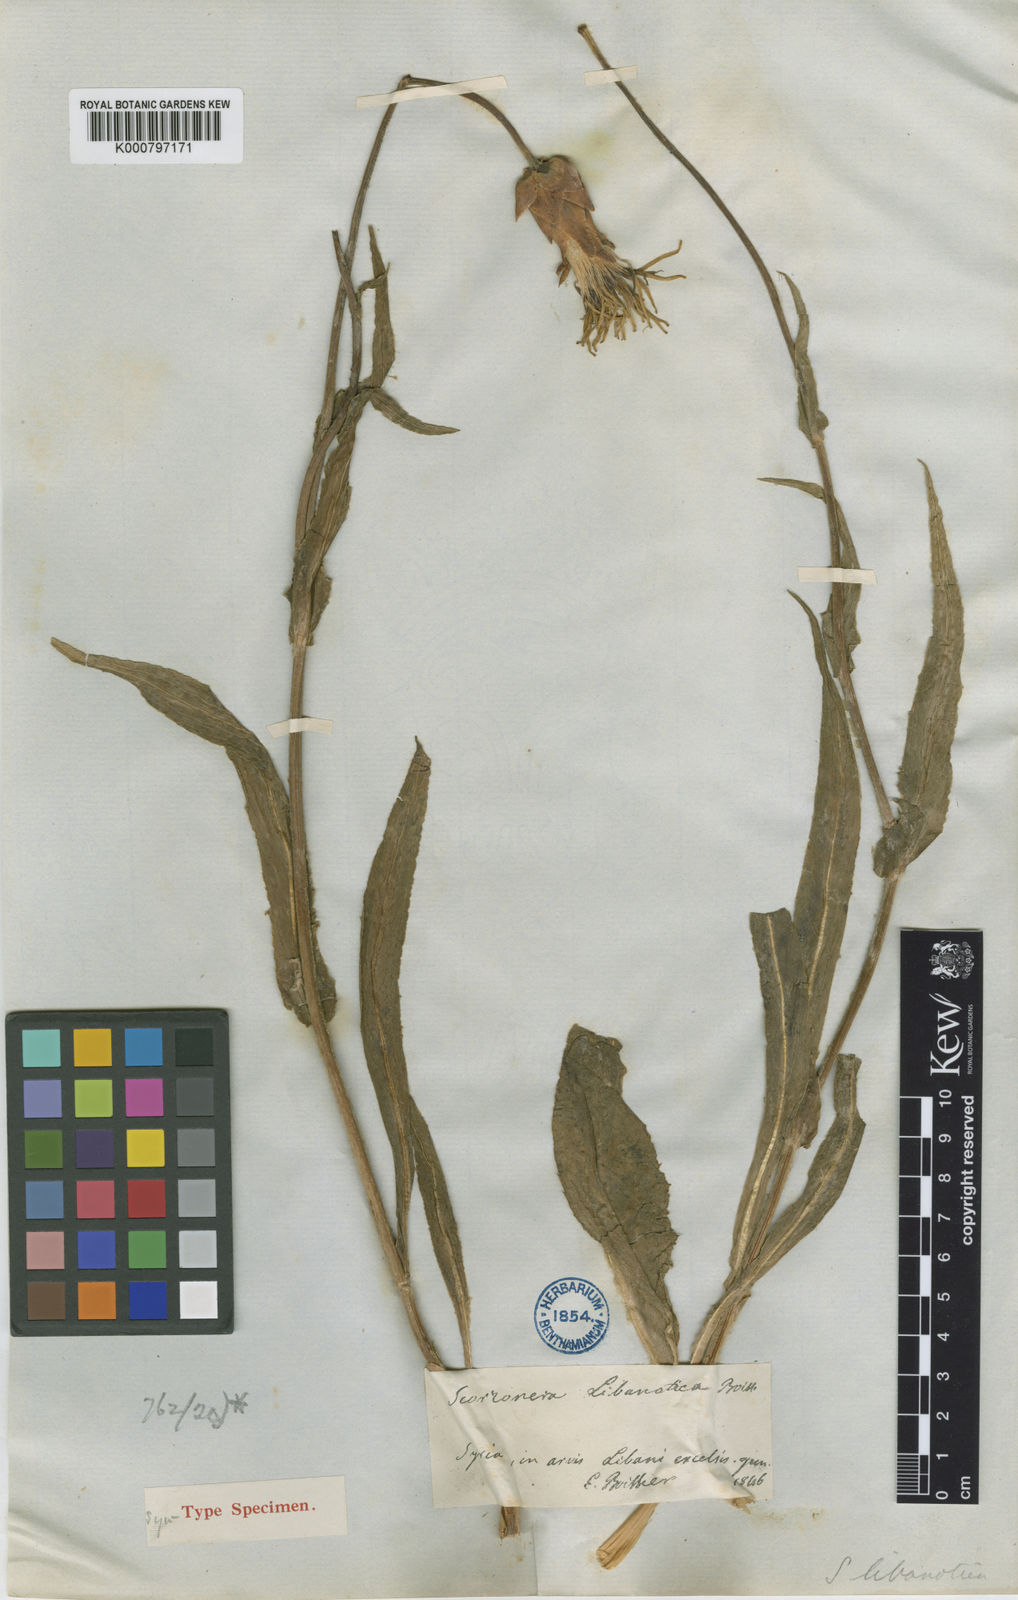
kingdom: Plantae
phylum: Tracheophyta
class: Magnoliopsida
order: Asterales
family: Asteraceae
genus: Aslia
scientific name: Aslia libanotica
